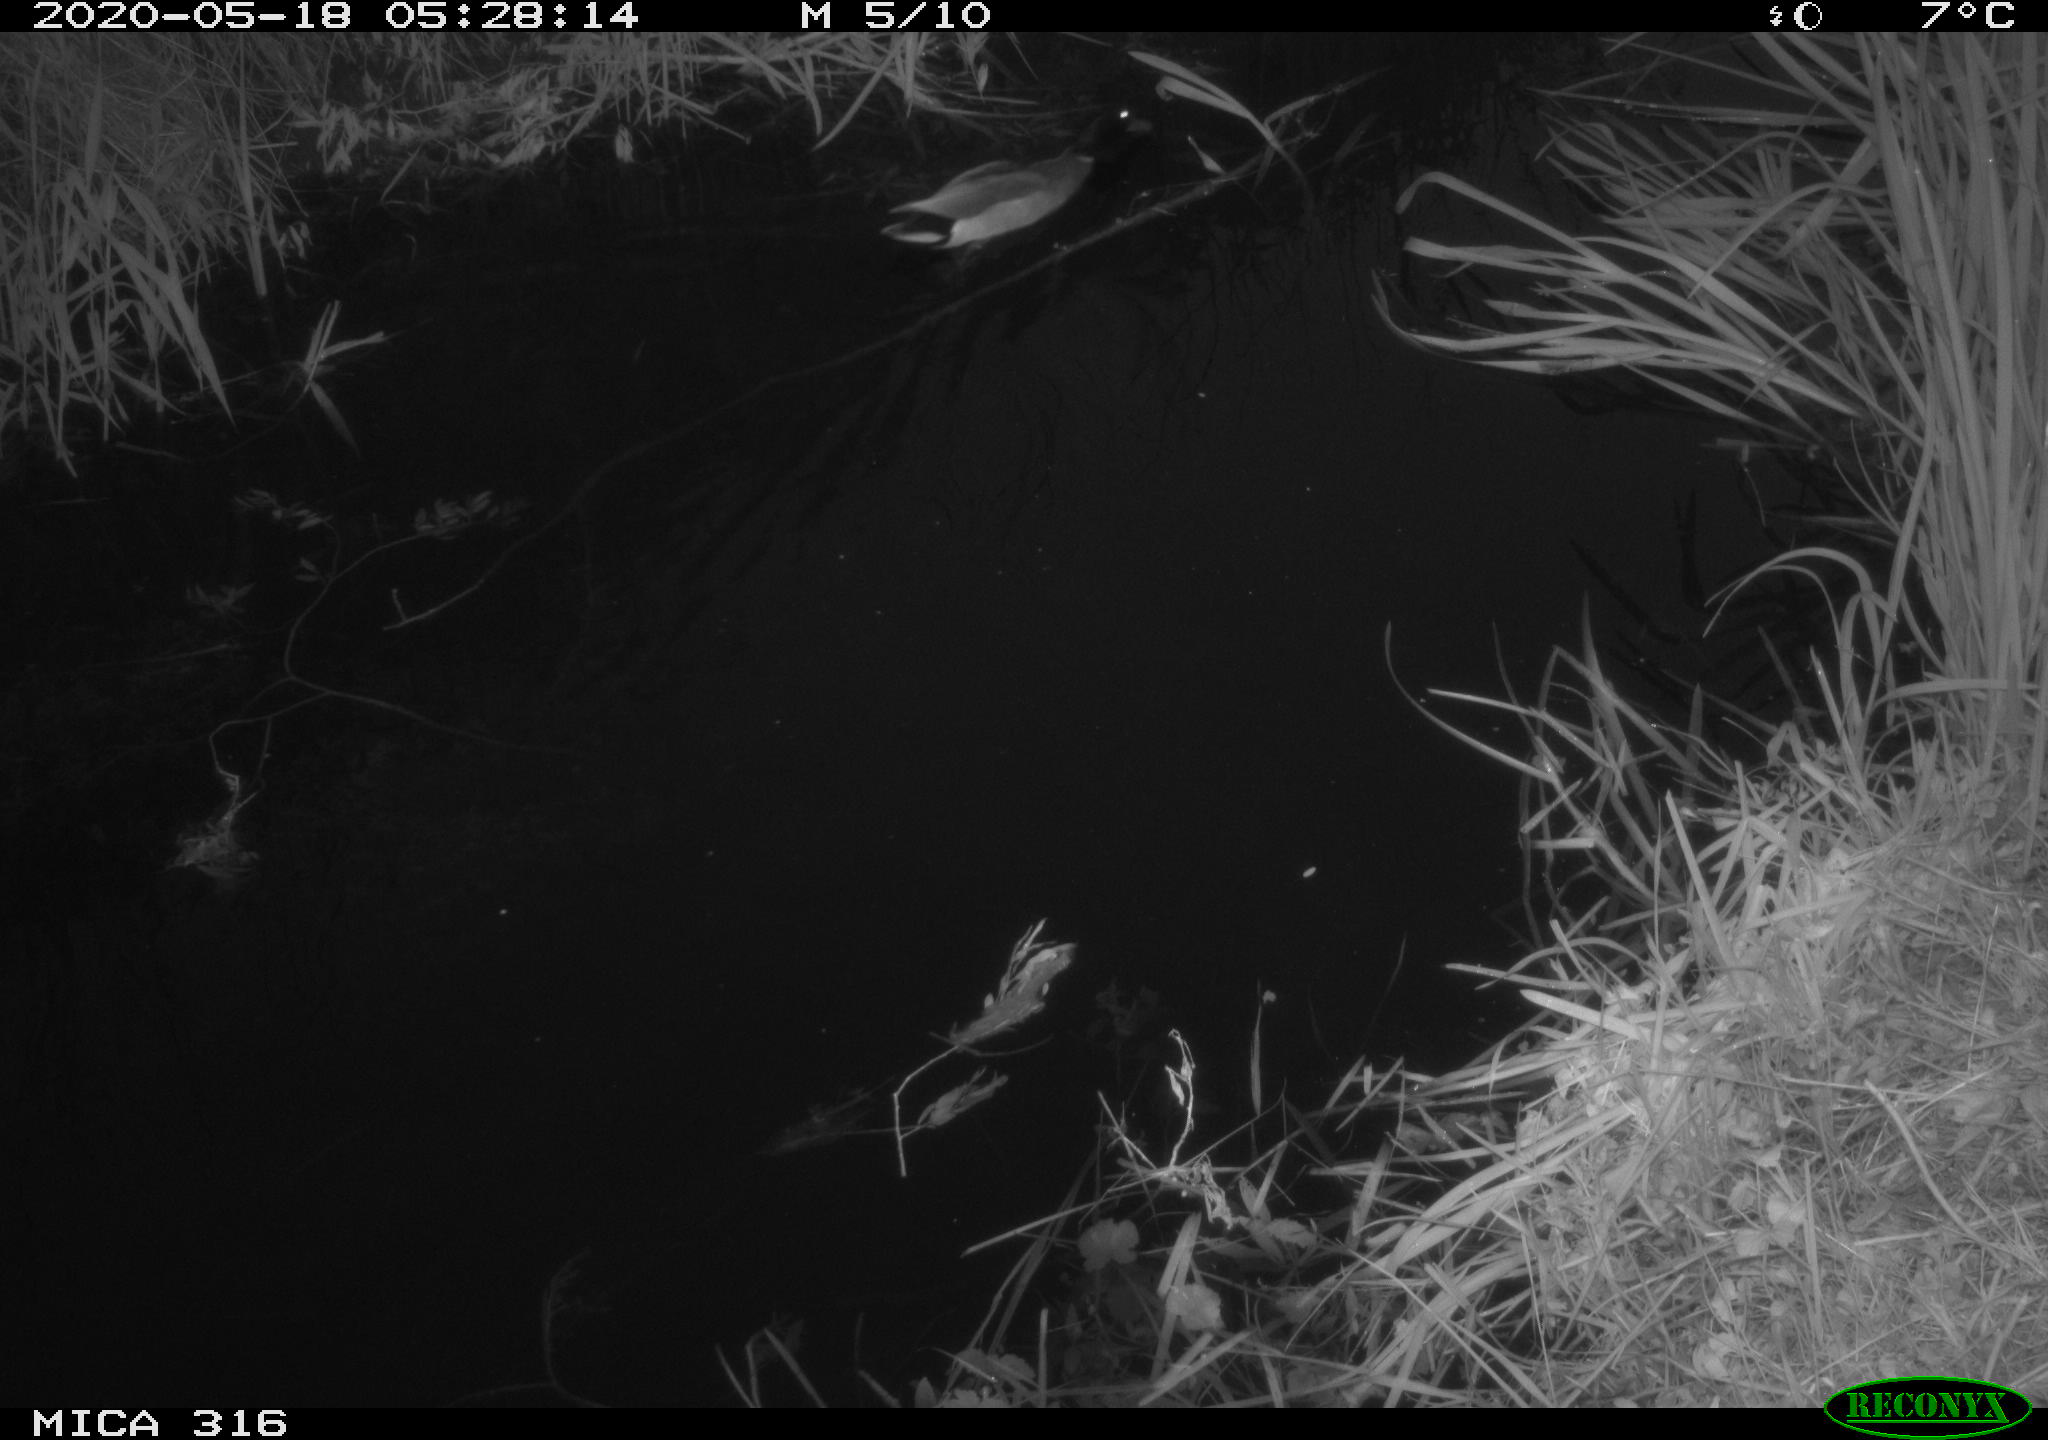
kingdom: Animalia
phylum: Chordata
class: Aves
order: Anseriformes
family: Anatidae
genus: Anas
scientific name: Anas platyrhynchos
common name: Mallard
